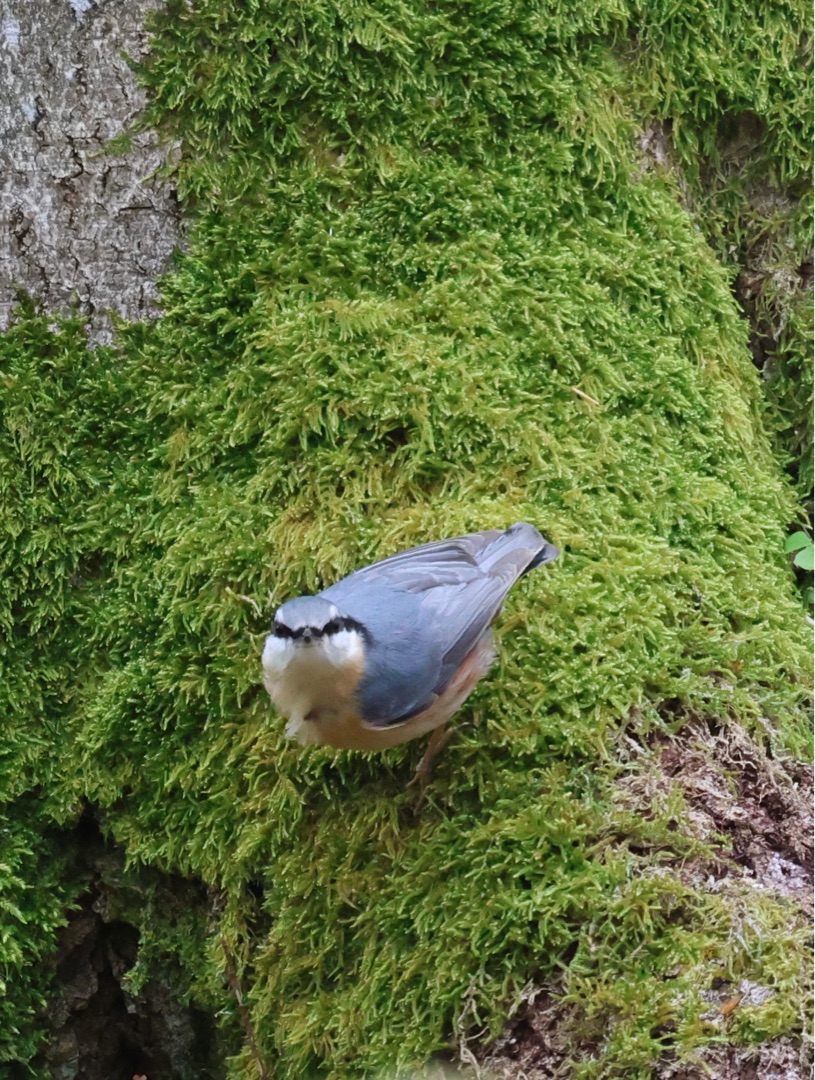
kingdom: Animalia
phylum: Chordata
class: Aves
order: Passeriformes
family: Sittidae
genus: Sitta
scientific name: Sitta europaea
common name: Spætmejse
